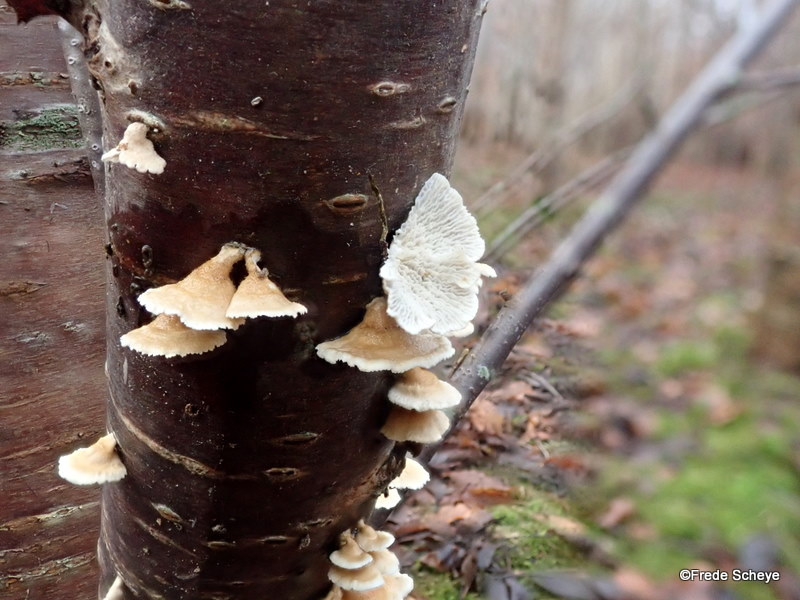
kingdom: Fungi
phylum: Basidiomycota
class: Agaricomycetes
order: Amylocorticiales
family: Amylocorticiaceae
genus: Plicaturopsis
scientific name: Plicaturopsis crispa
